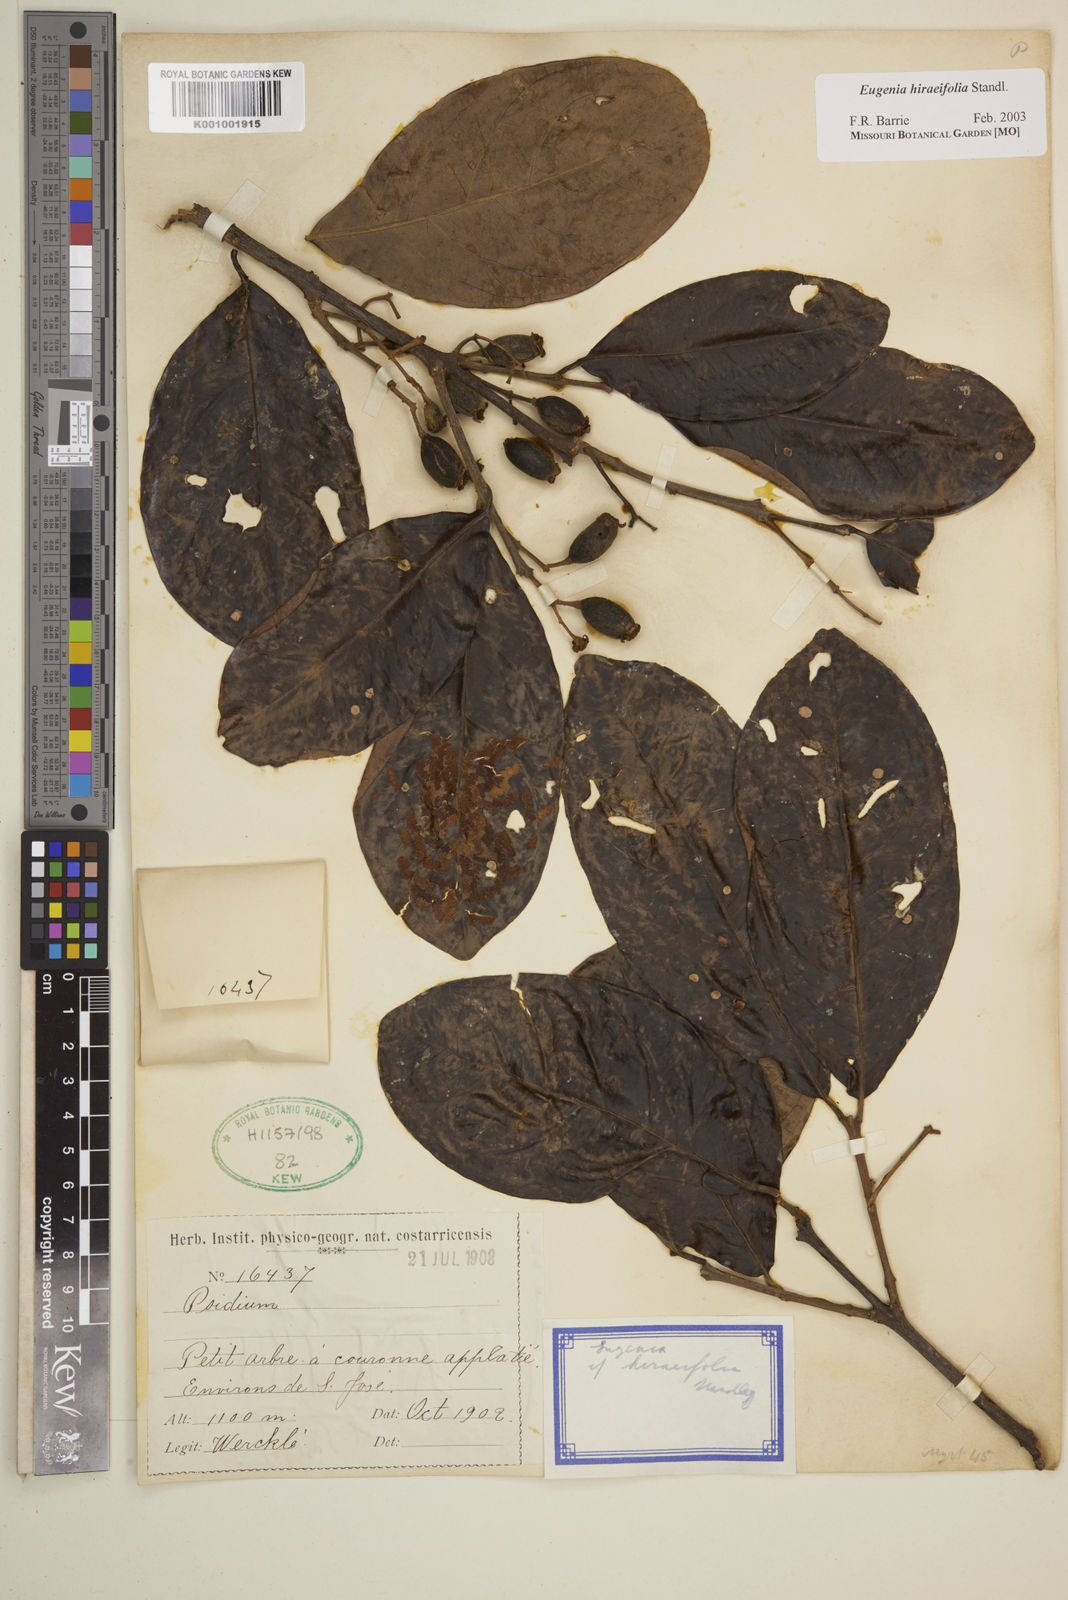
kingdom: Plantae
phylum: Tracheophyta
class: Magnoliopsida
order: Myrtales
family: Myrtaceae
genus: Eugenia
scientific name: Eugenia hiraeifolia
